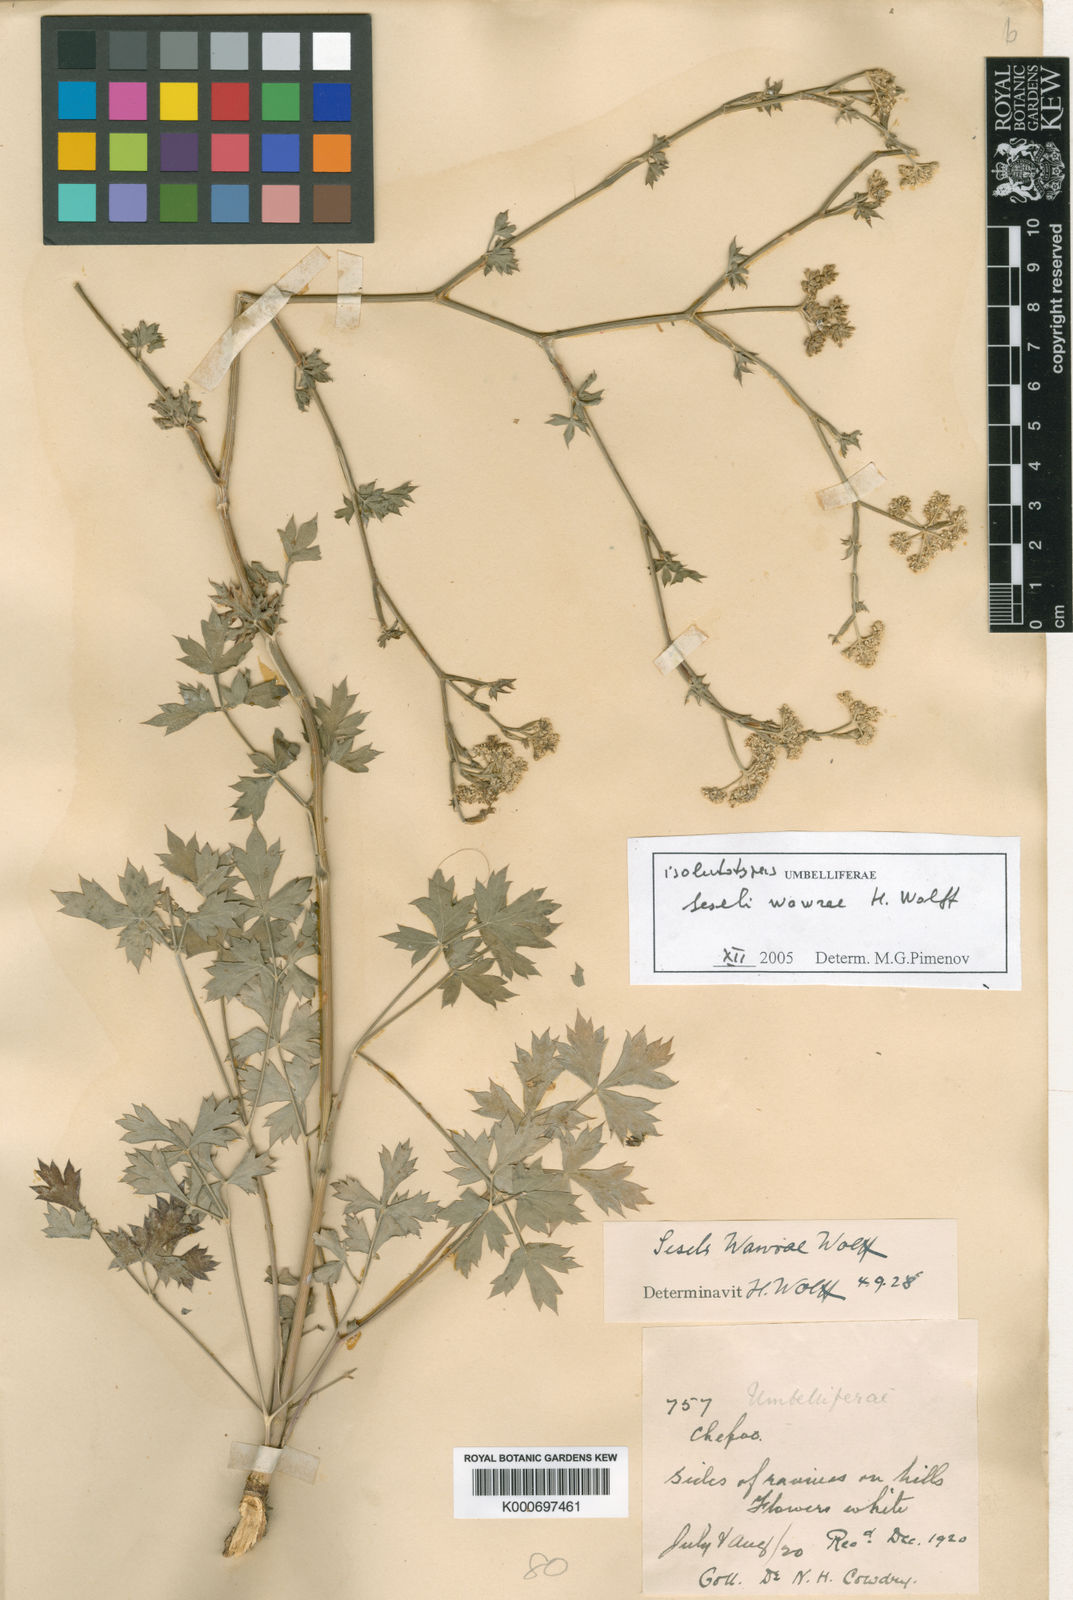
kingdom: Plantae
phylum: Tracheophyta
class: Magnoliopsida
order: Apiales
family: Apiaceae
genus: Seseli
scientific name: Seseli wawrae
